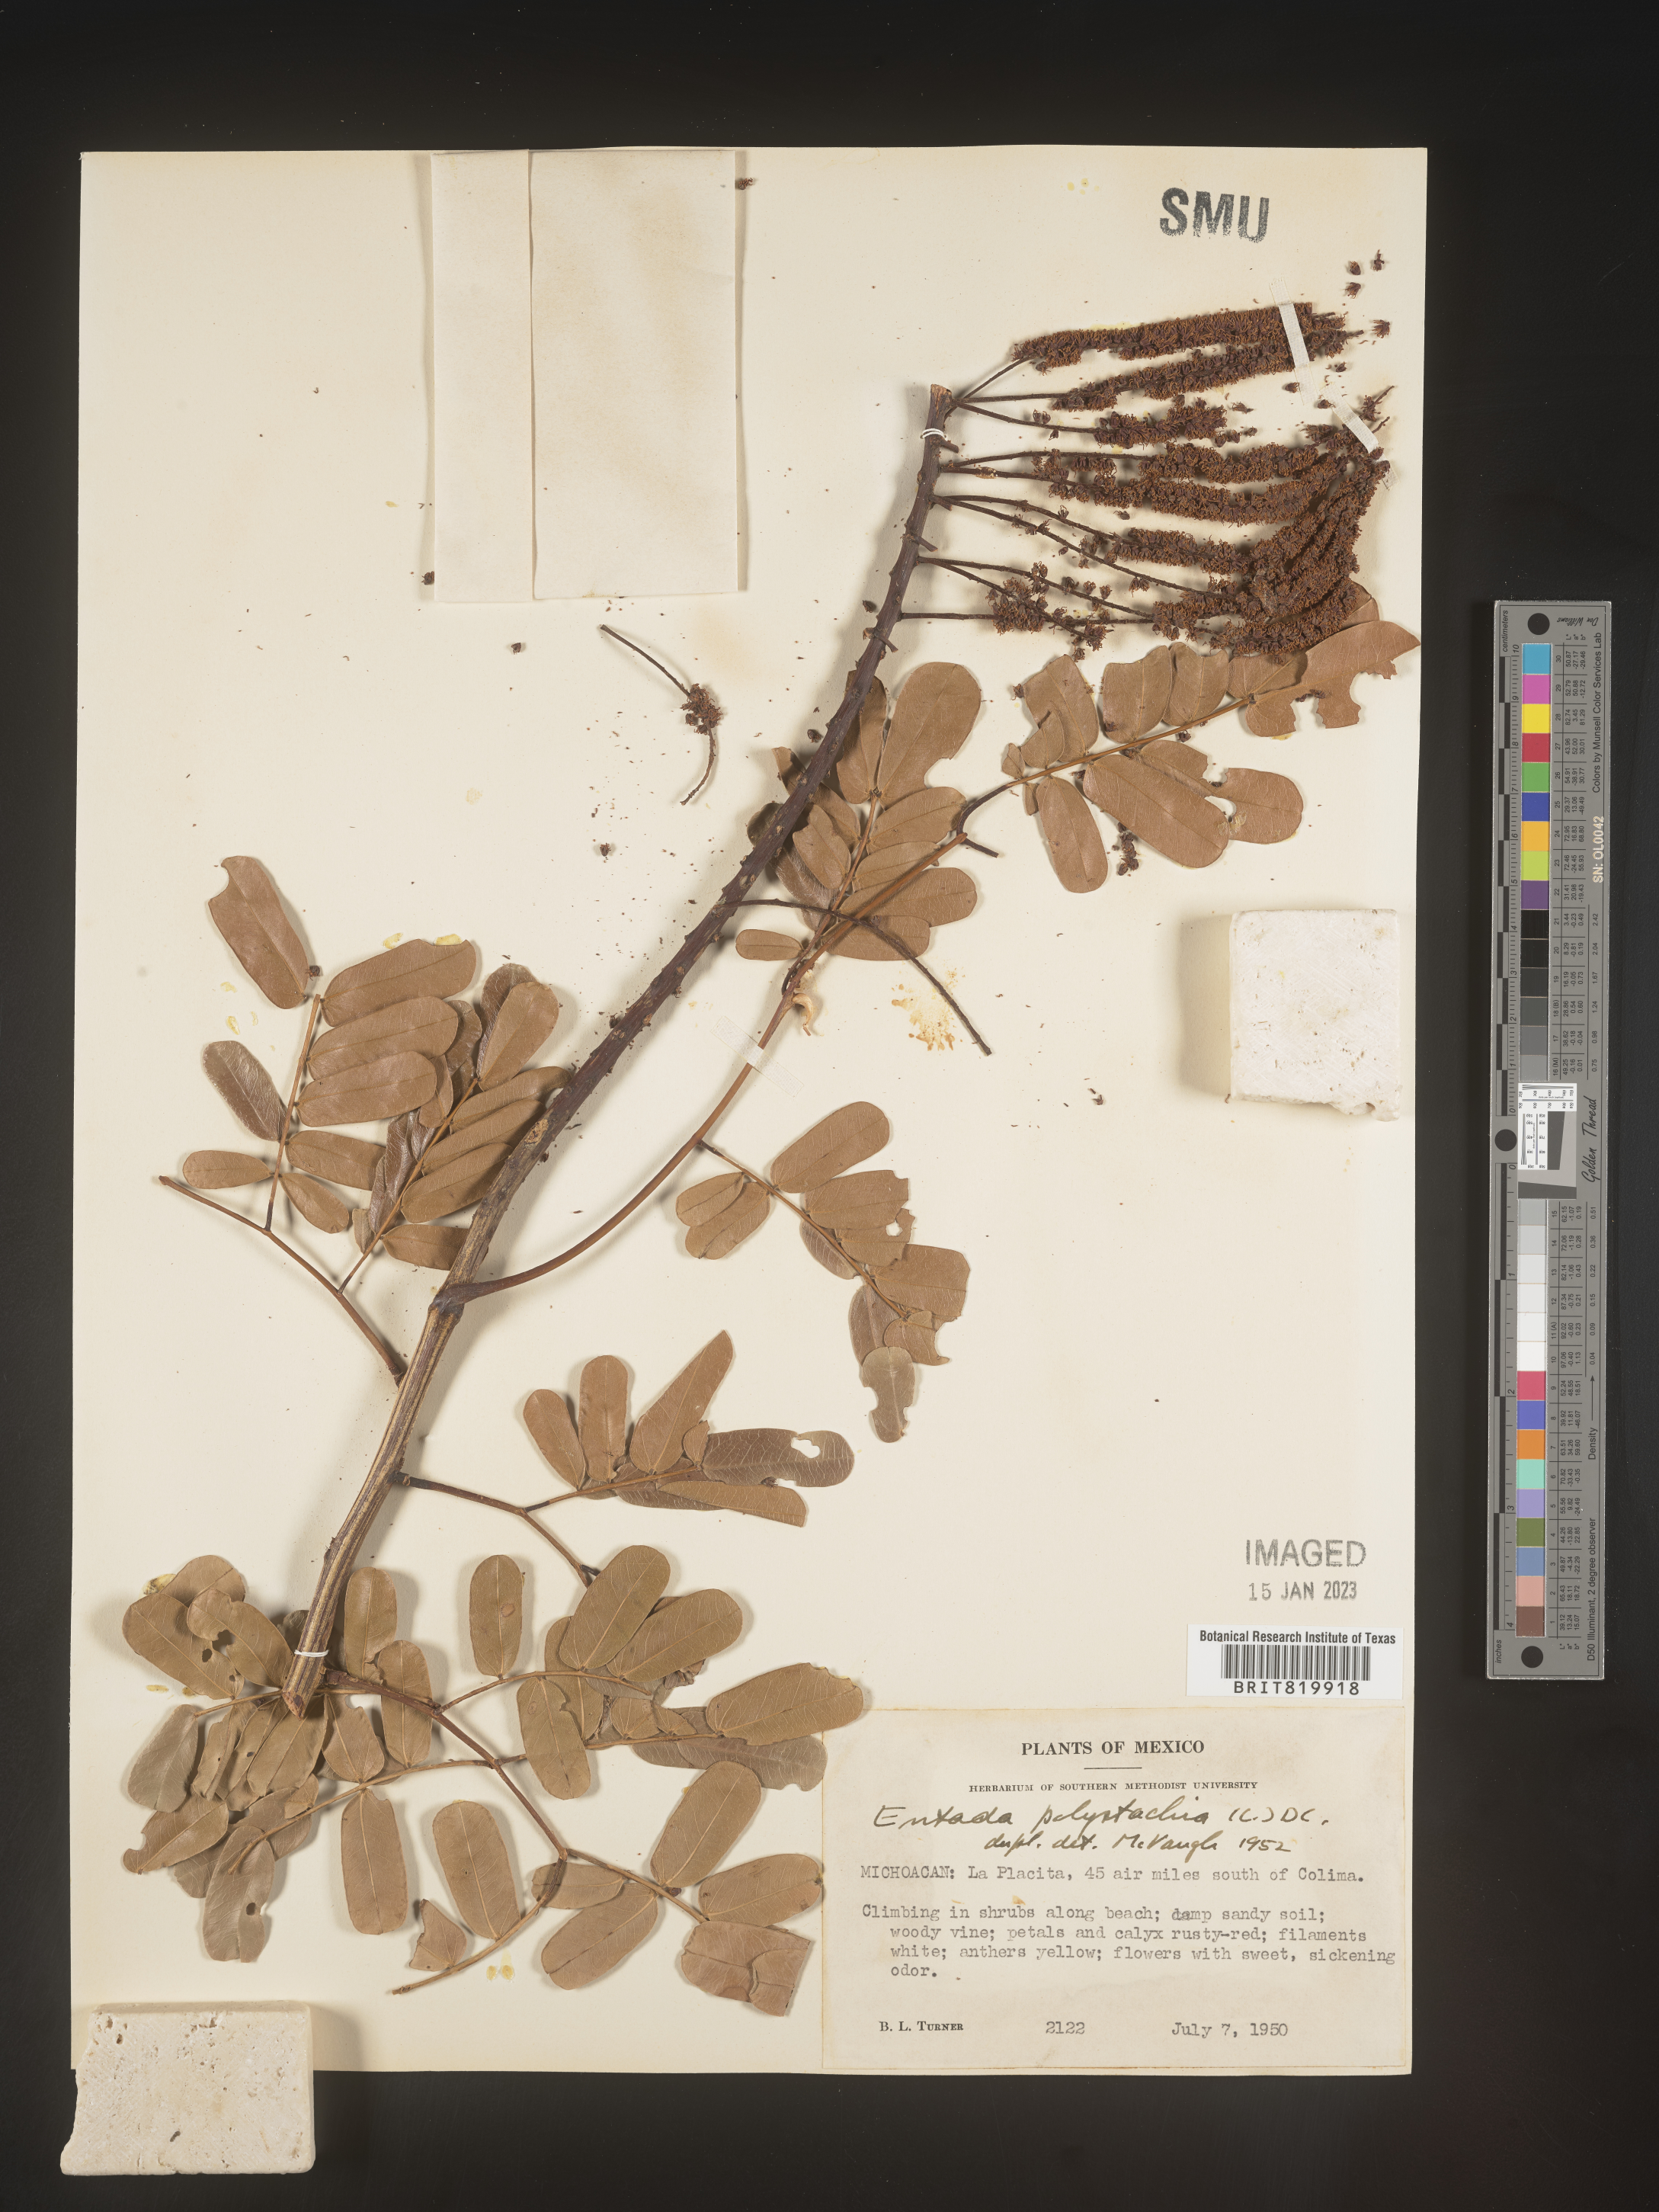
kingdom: Plantae
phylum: Tracheophyta
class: Magnoliopsida
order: Fabales
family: Fabaceae
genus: Entada
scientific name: Entada
